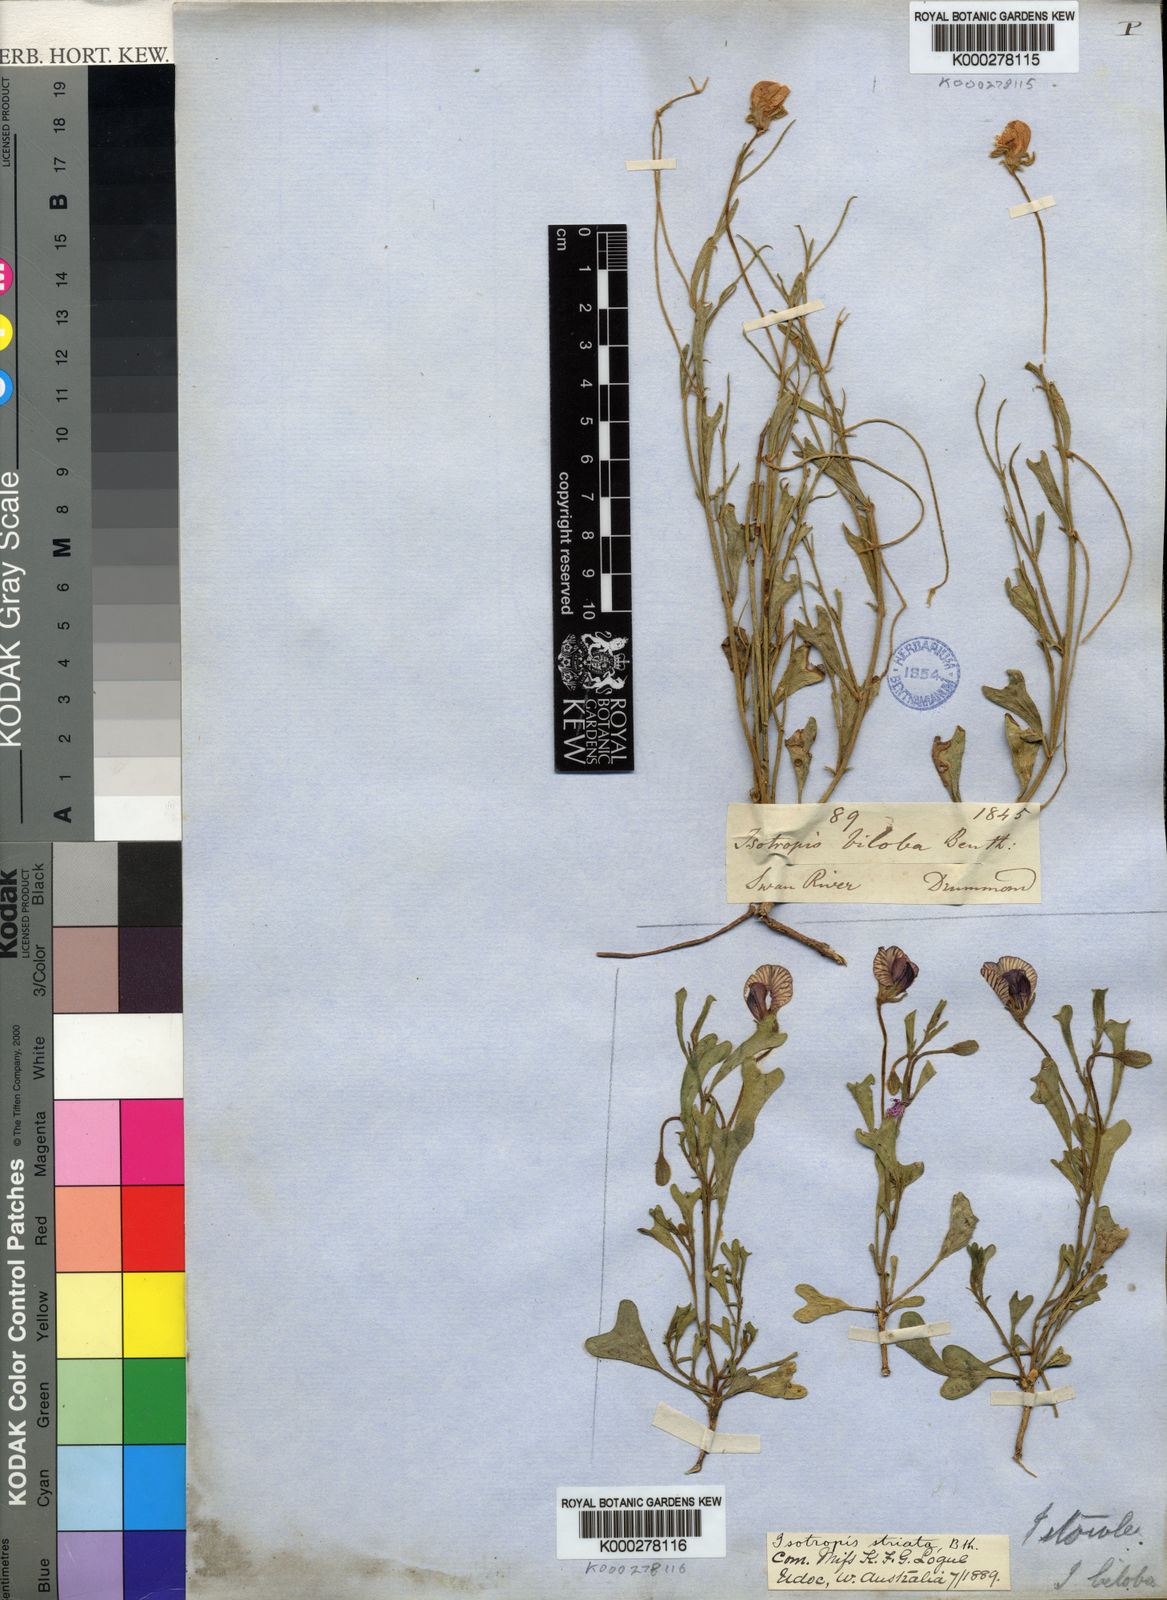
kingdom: Plantae
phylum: Tracheophyta
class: Magnoliopsida
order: Fabales
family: Fabaceae
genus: Isotropis
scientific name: Isotropis cuneifolia
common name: Granny bonnets
